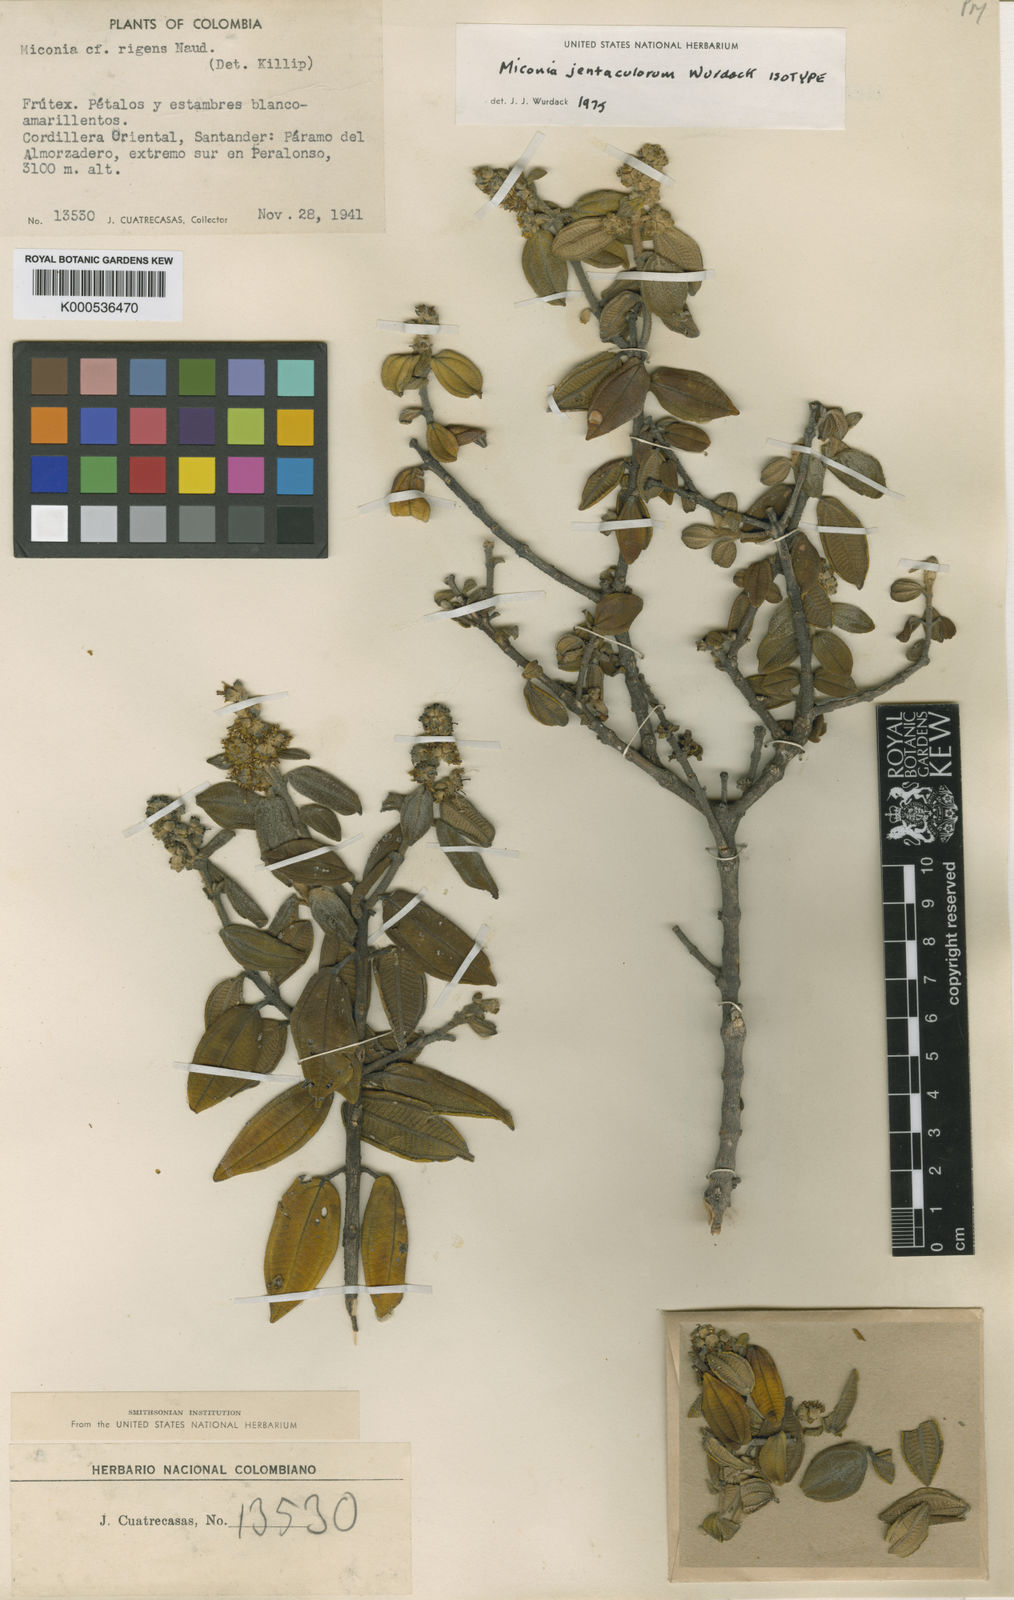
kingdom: Plantae
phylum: Tracheophyta
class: Magnoliopsida
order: Myrtales
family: Melastomataceae
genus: Miconia
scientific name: Miconia jentaculorum
